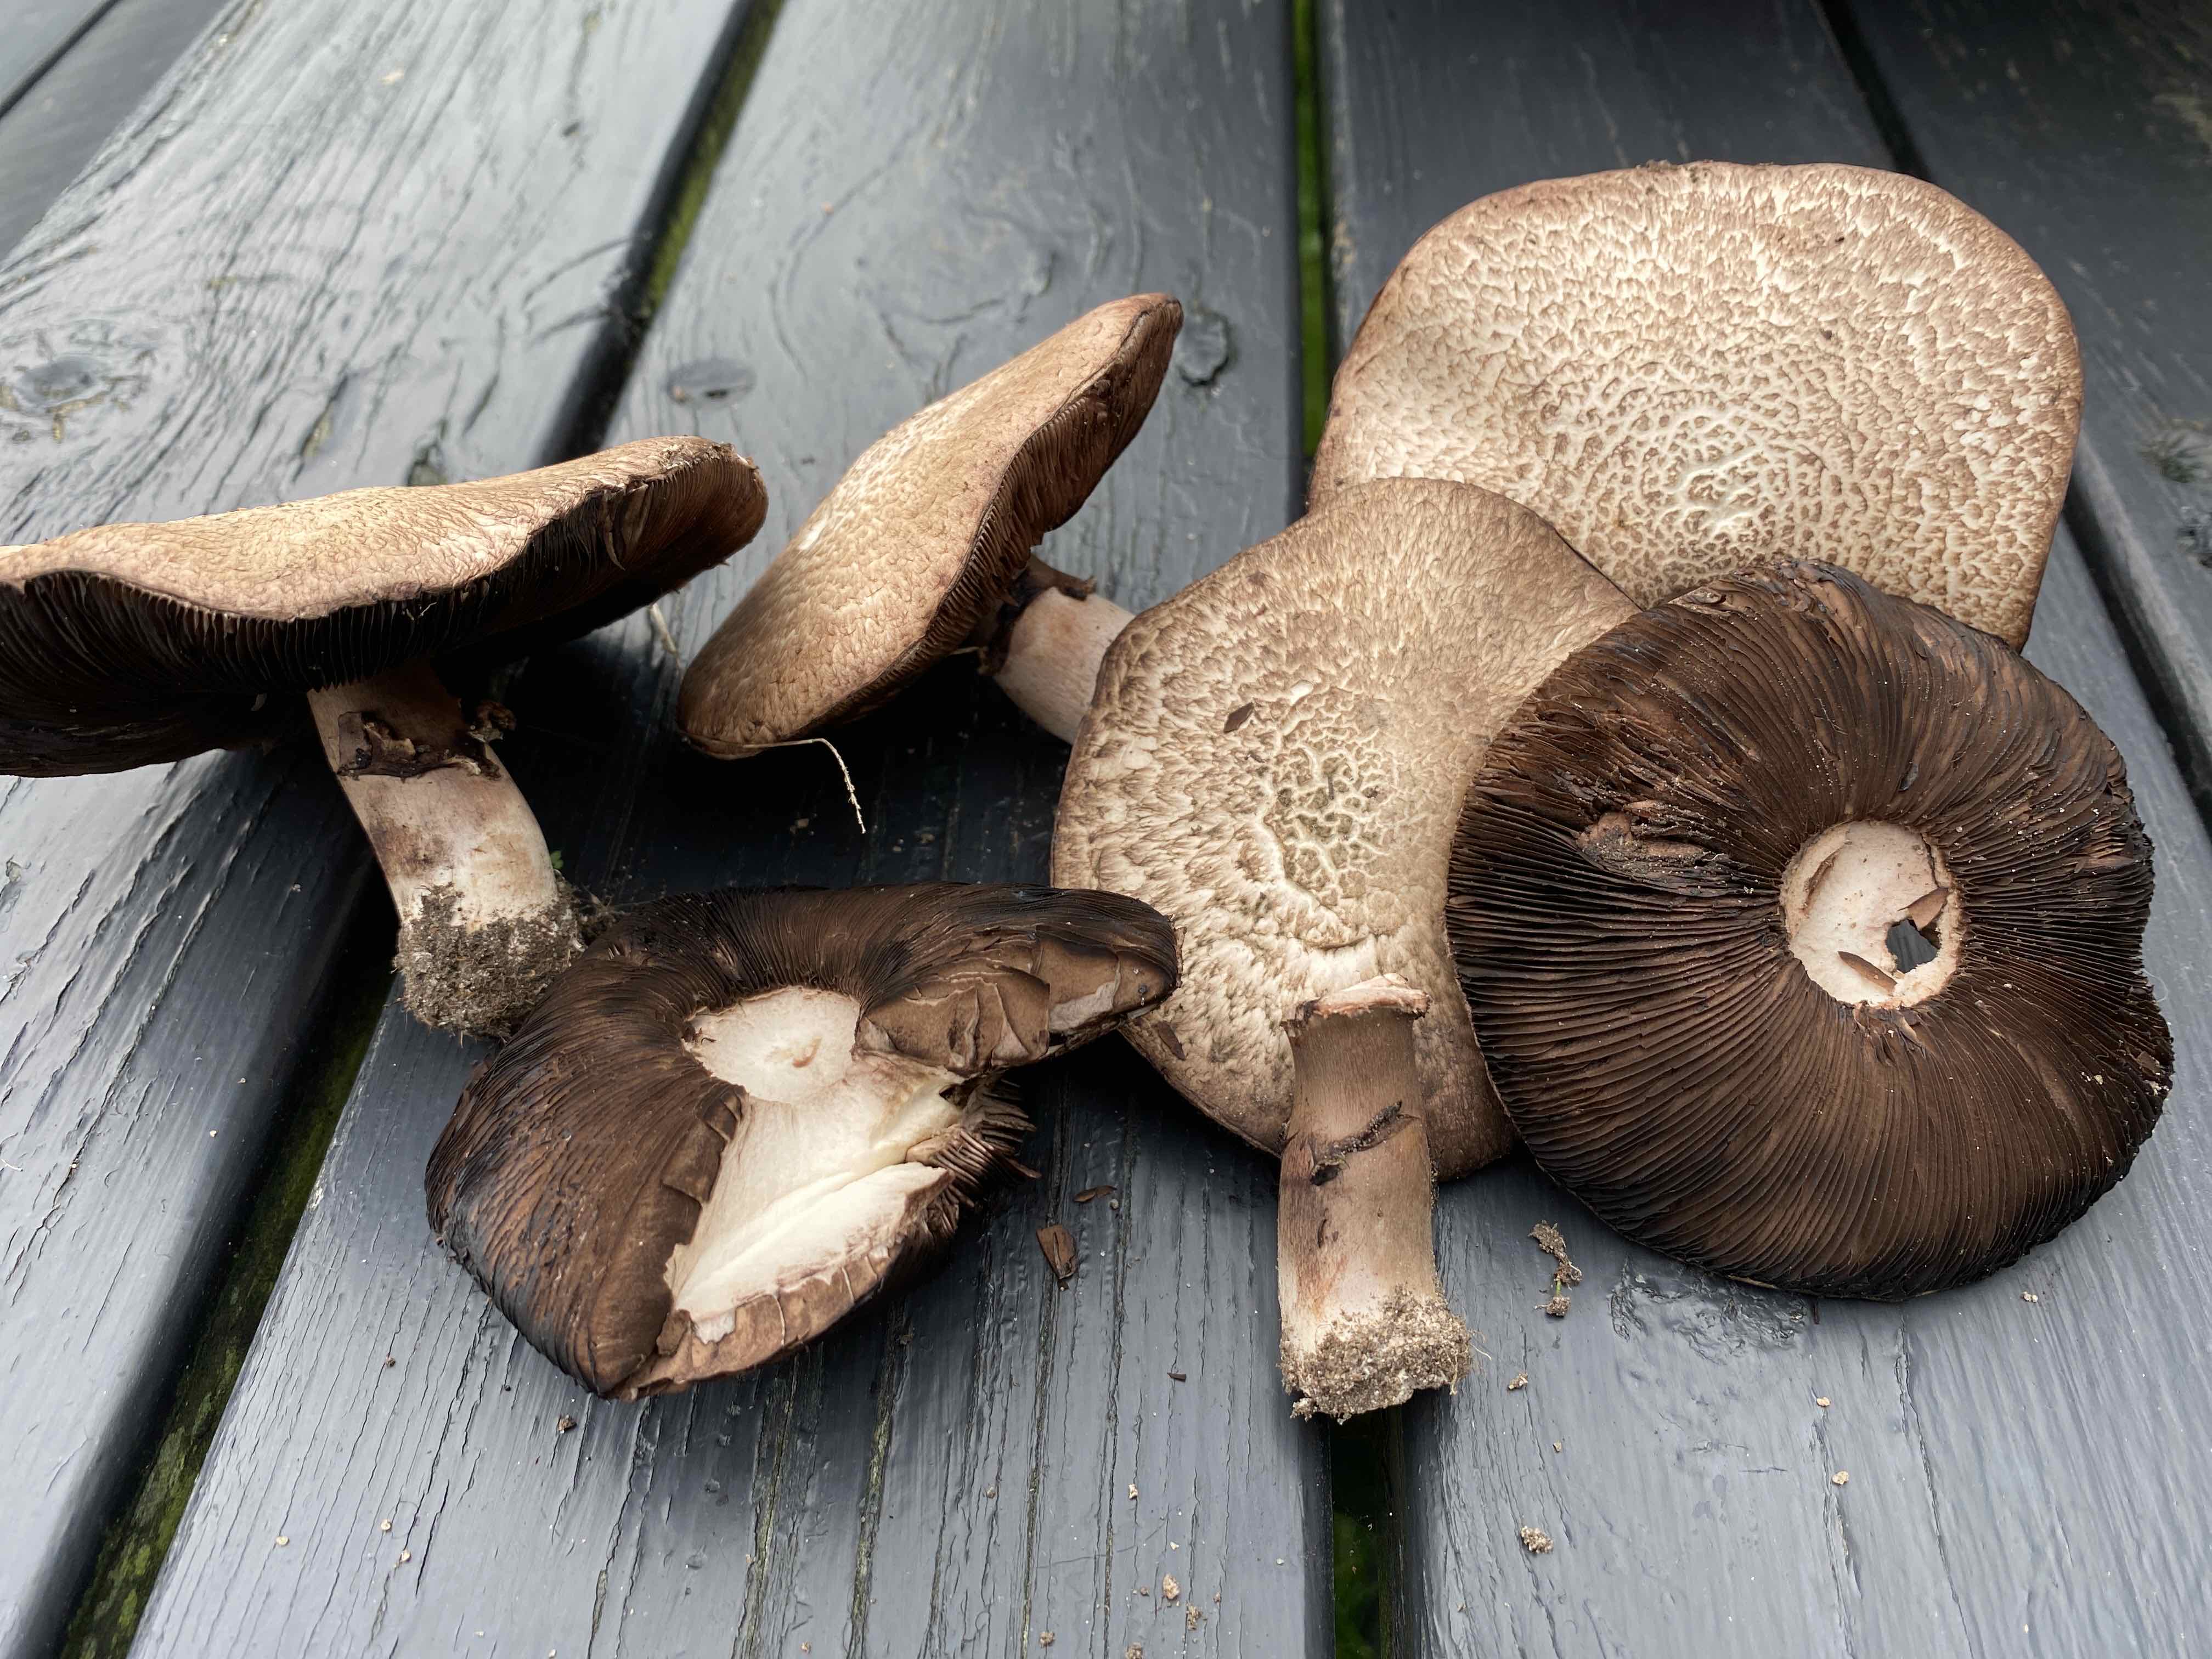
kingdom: Fungi
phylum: Basidiomycota
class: Agaricomycetes
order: Agaricales
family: Agaricaceae
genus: Agaricus
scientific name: Agaricus
